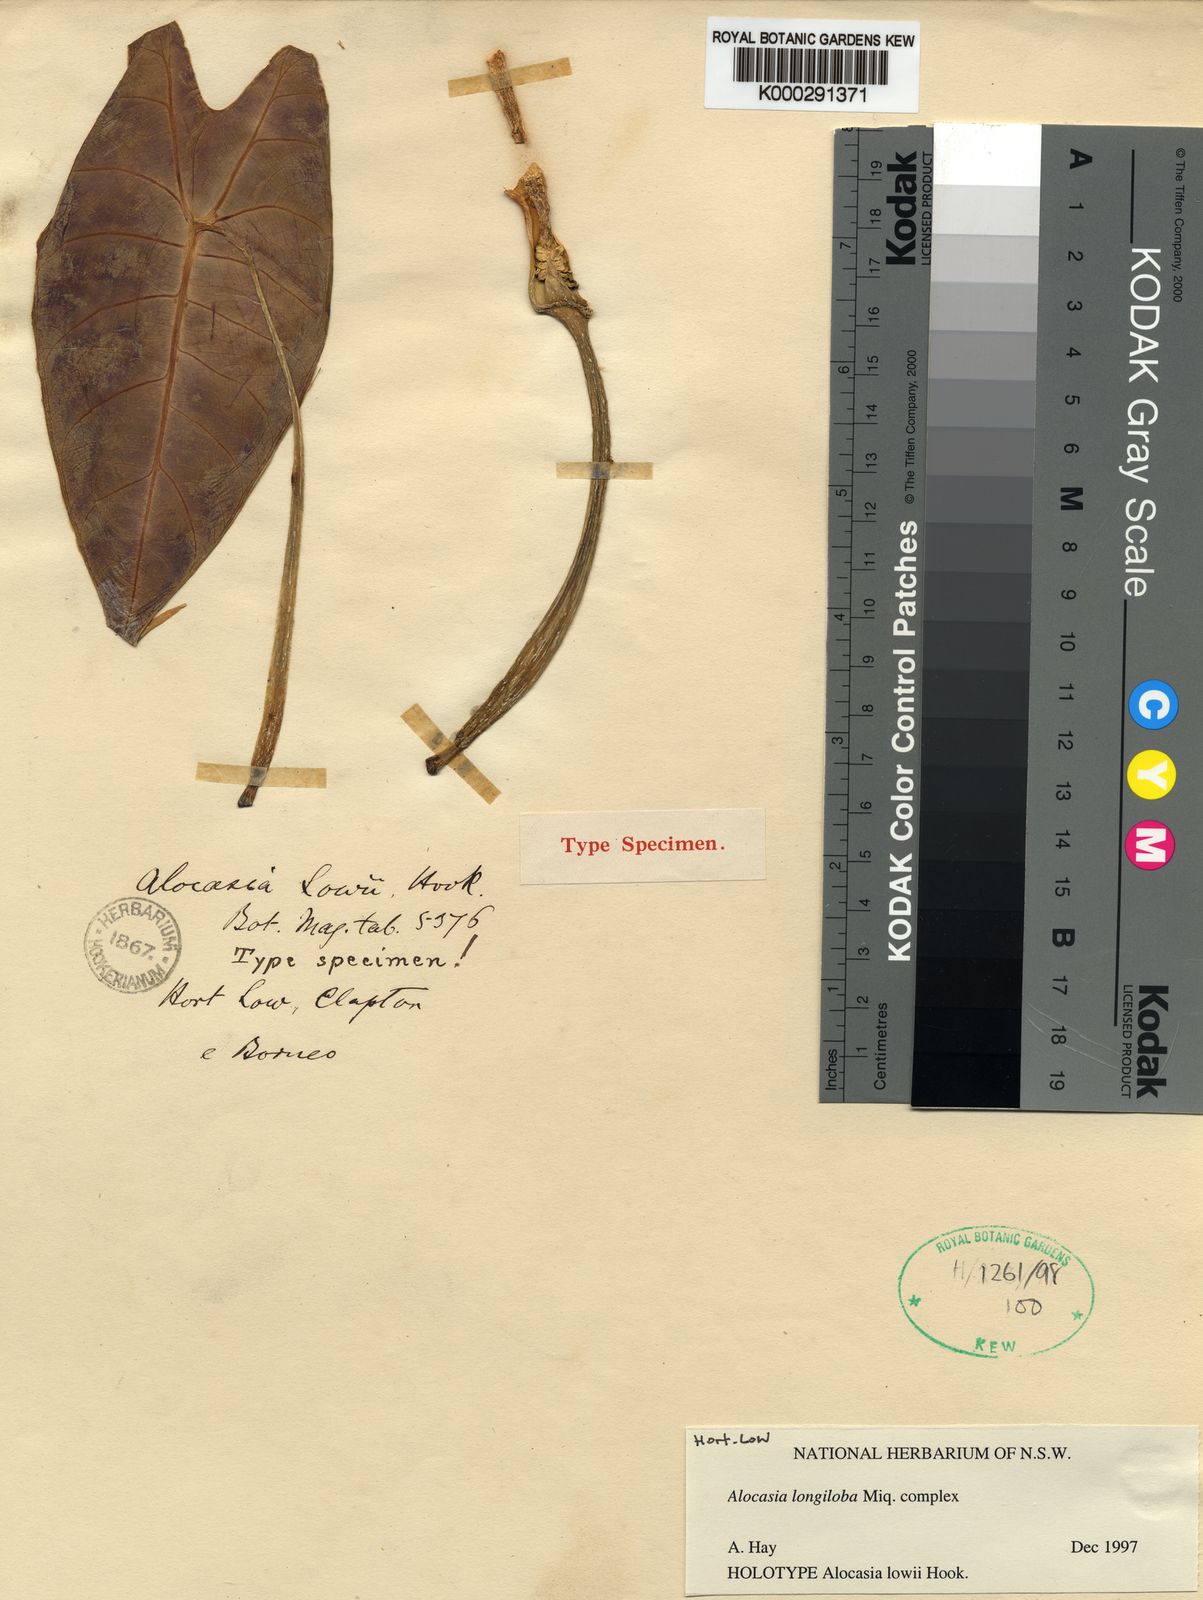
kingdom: Plantae
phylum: Tracheophyta
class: Liliopsida
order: Alismatales
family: Araceae
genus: Alocasia
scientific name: Alocasia longiloba
